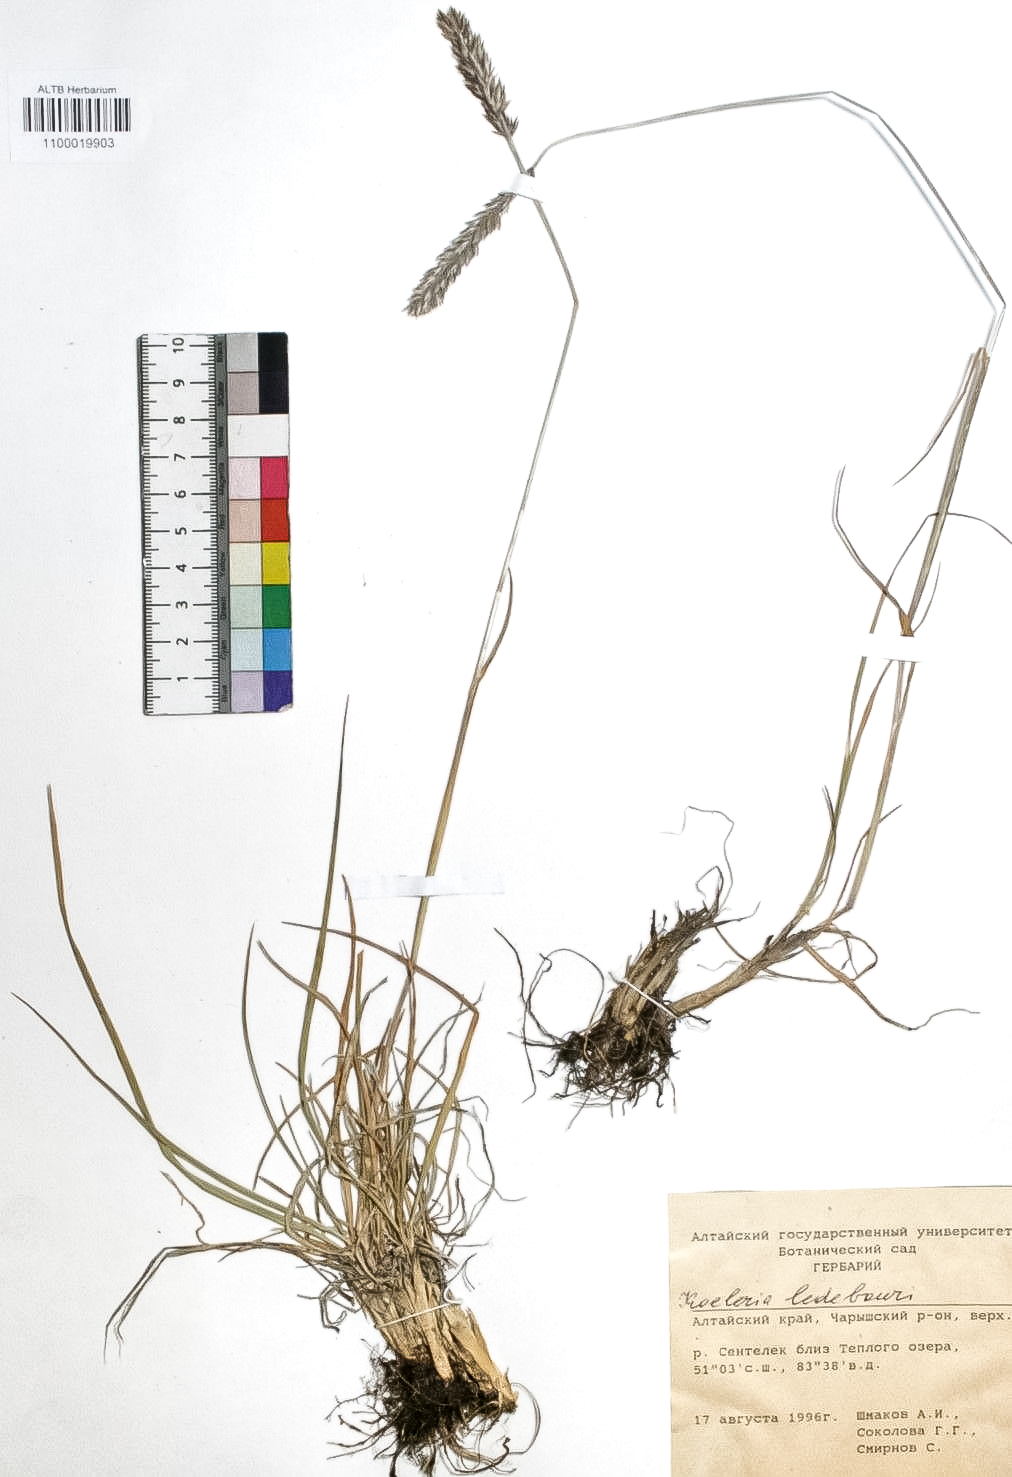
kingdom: Plantae
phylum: Tracheophyta
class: Liliopsida
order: Poales
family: Poaceae
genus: Koeleria
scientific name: Koeleria asiatica
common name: Eurasian junegrass
